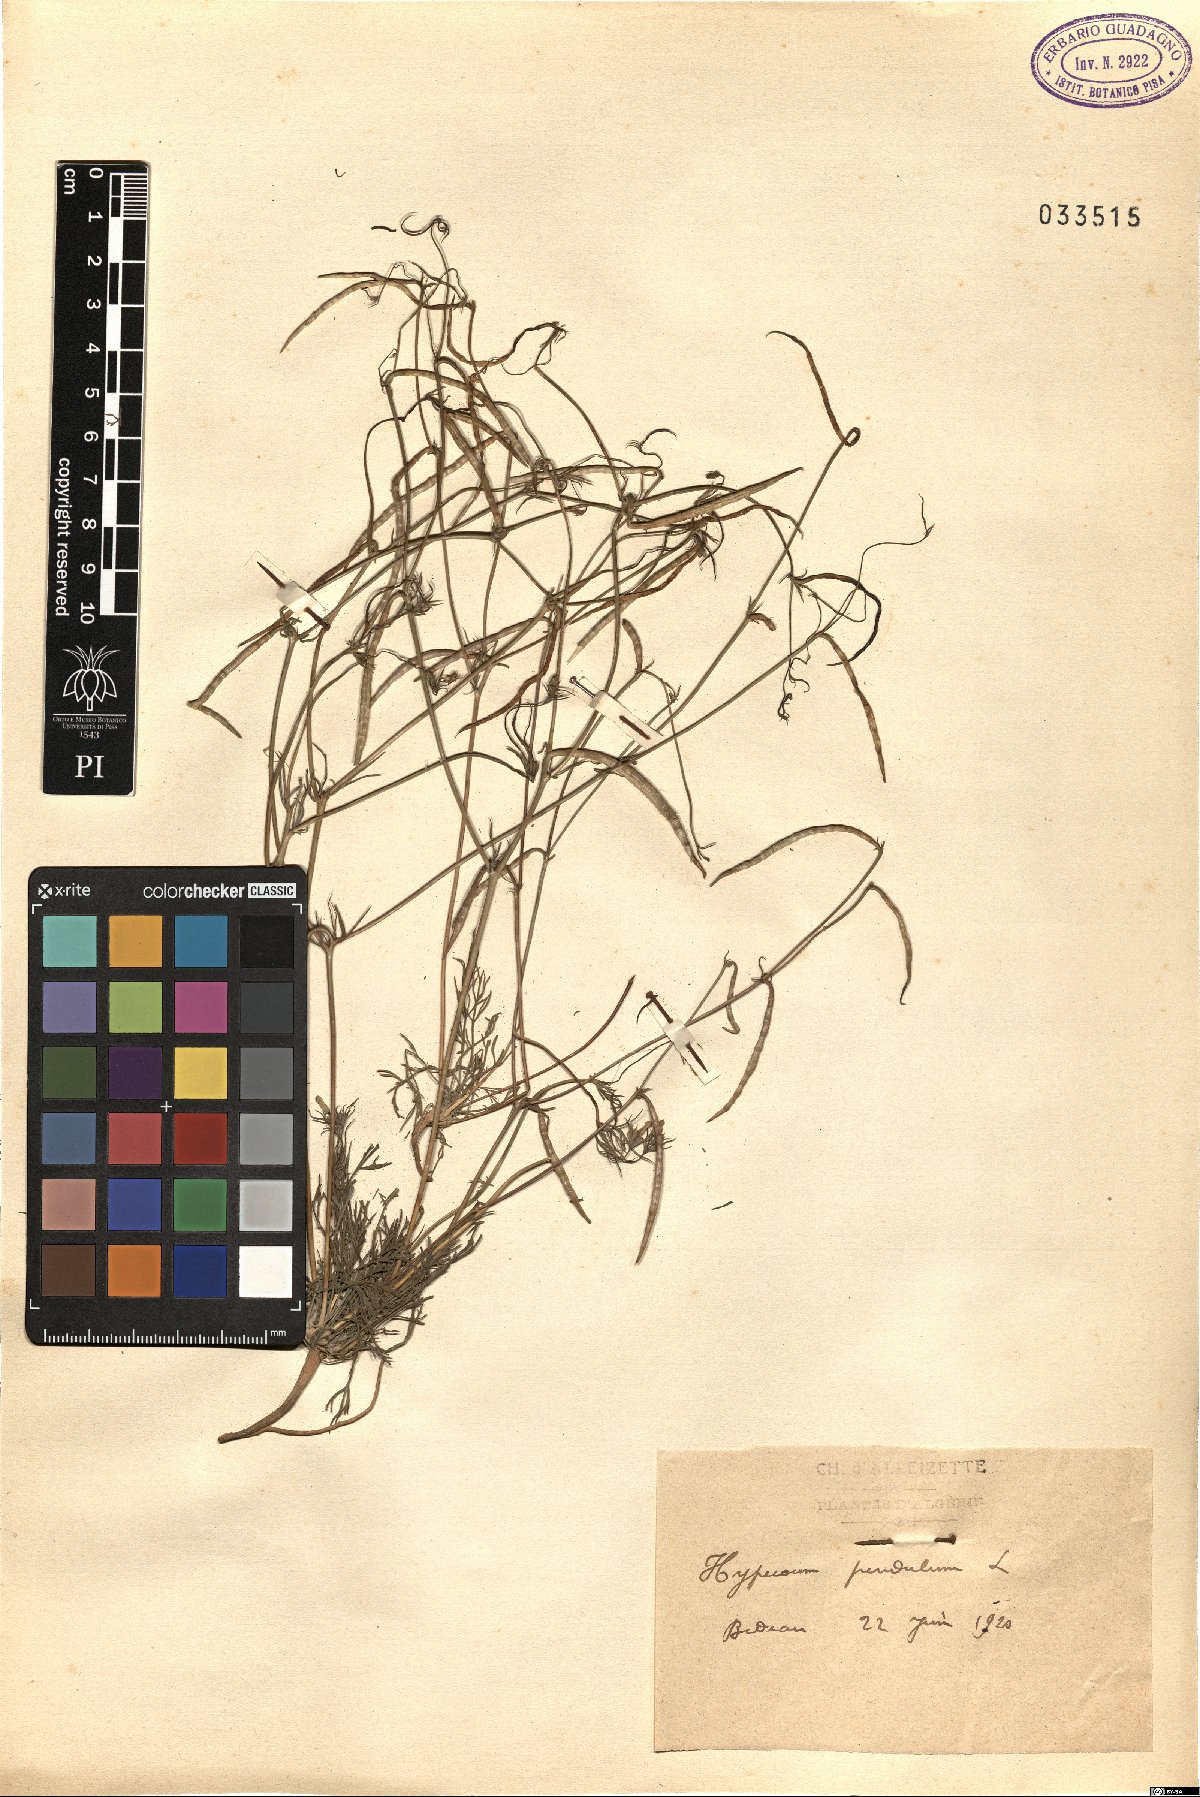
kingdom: Plantae
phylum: Tracheophyta
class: Magnoliopsida
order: Ranunculales
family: Papaveraceae
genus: Hypecoum
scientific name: Hypecoum pendulum
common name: Nodding hypecoum
